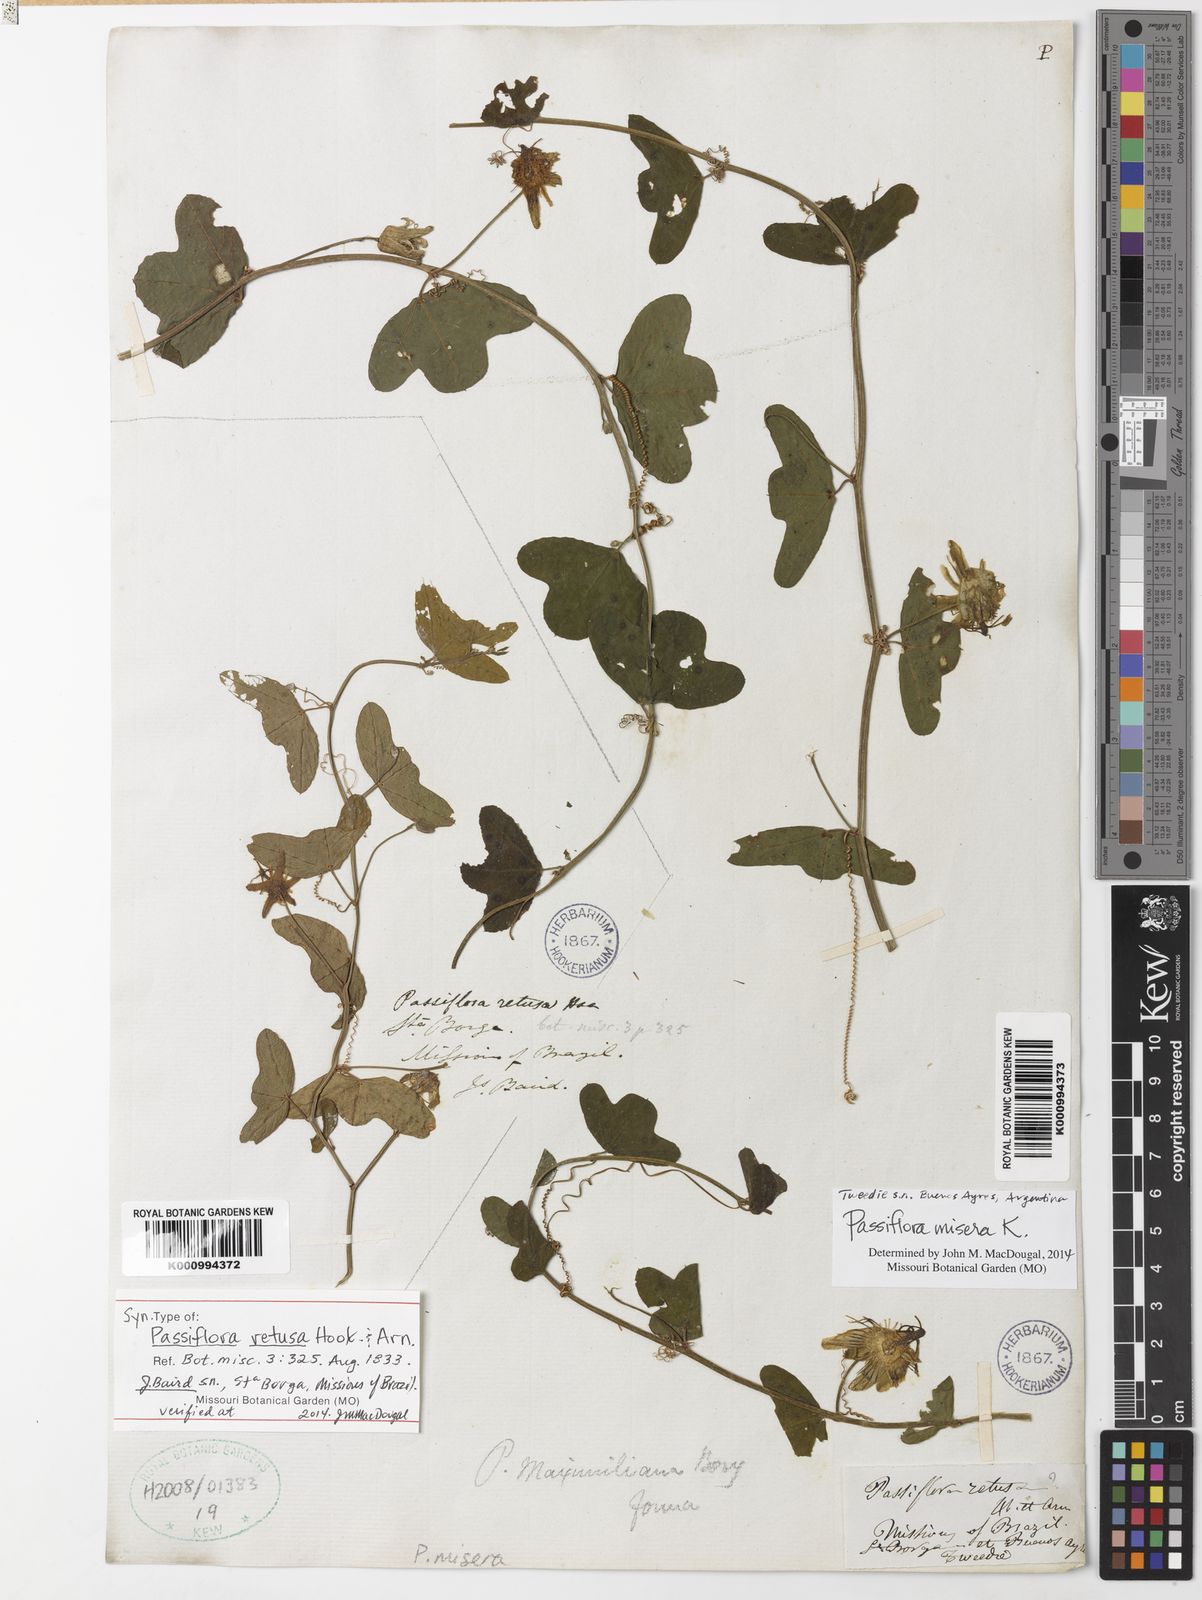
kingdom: Plantae
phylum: Tracheophyta
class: Magnoliopsida
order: Malpighiales
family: Passifloraceae
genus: Passiflora
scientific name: Passiflora misera
